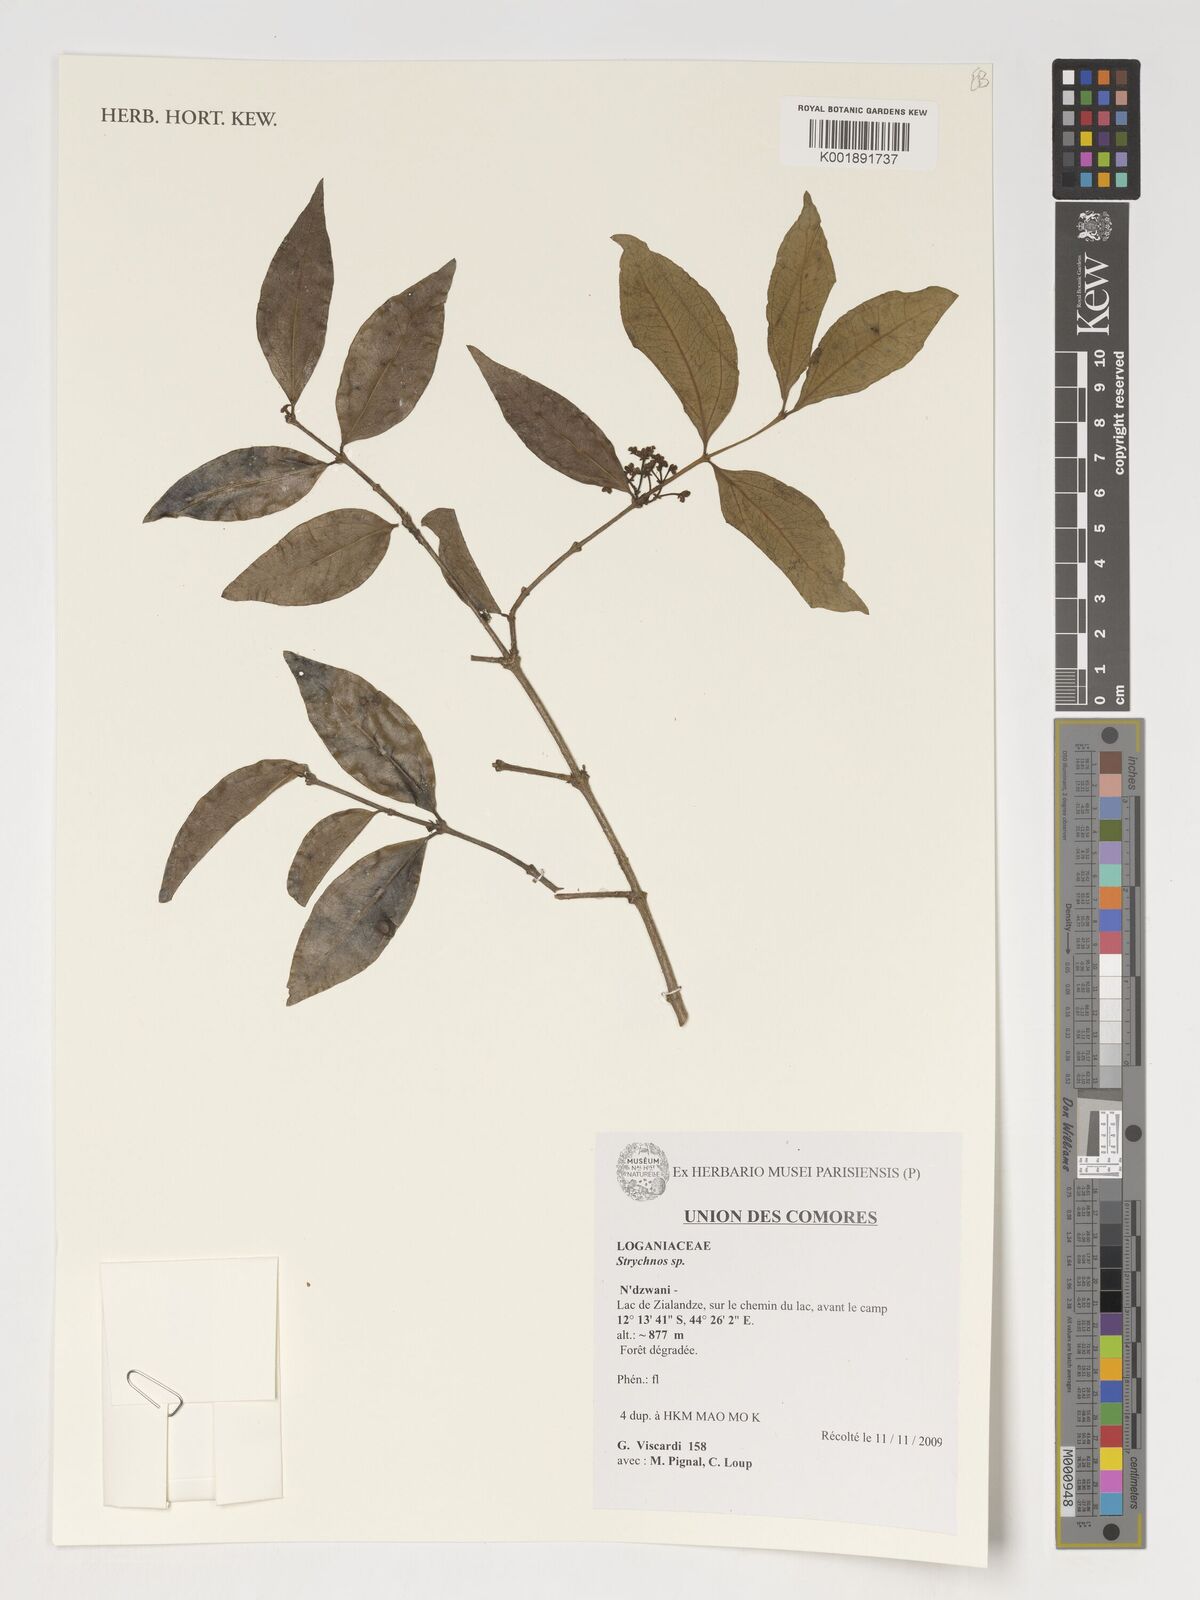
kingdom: Plantae
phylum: Tracheophyta
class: Magnoliopsida
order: Gentianales
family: Loganiaceae
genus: Strychnos
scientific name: Strychnos
